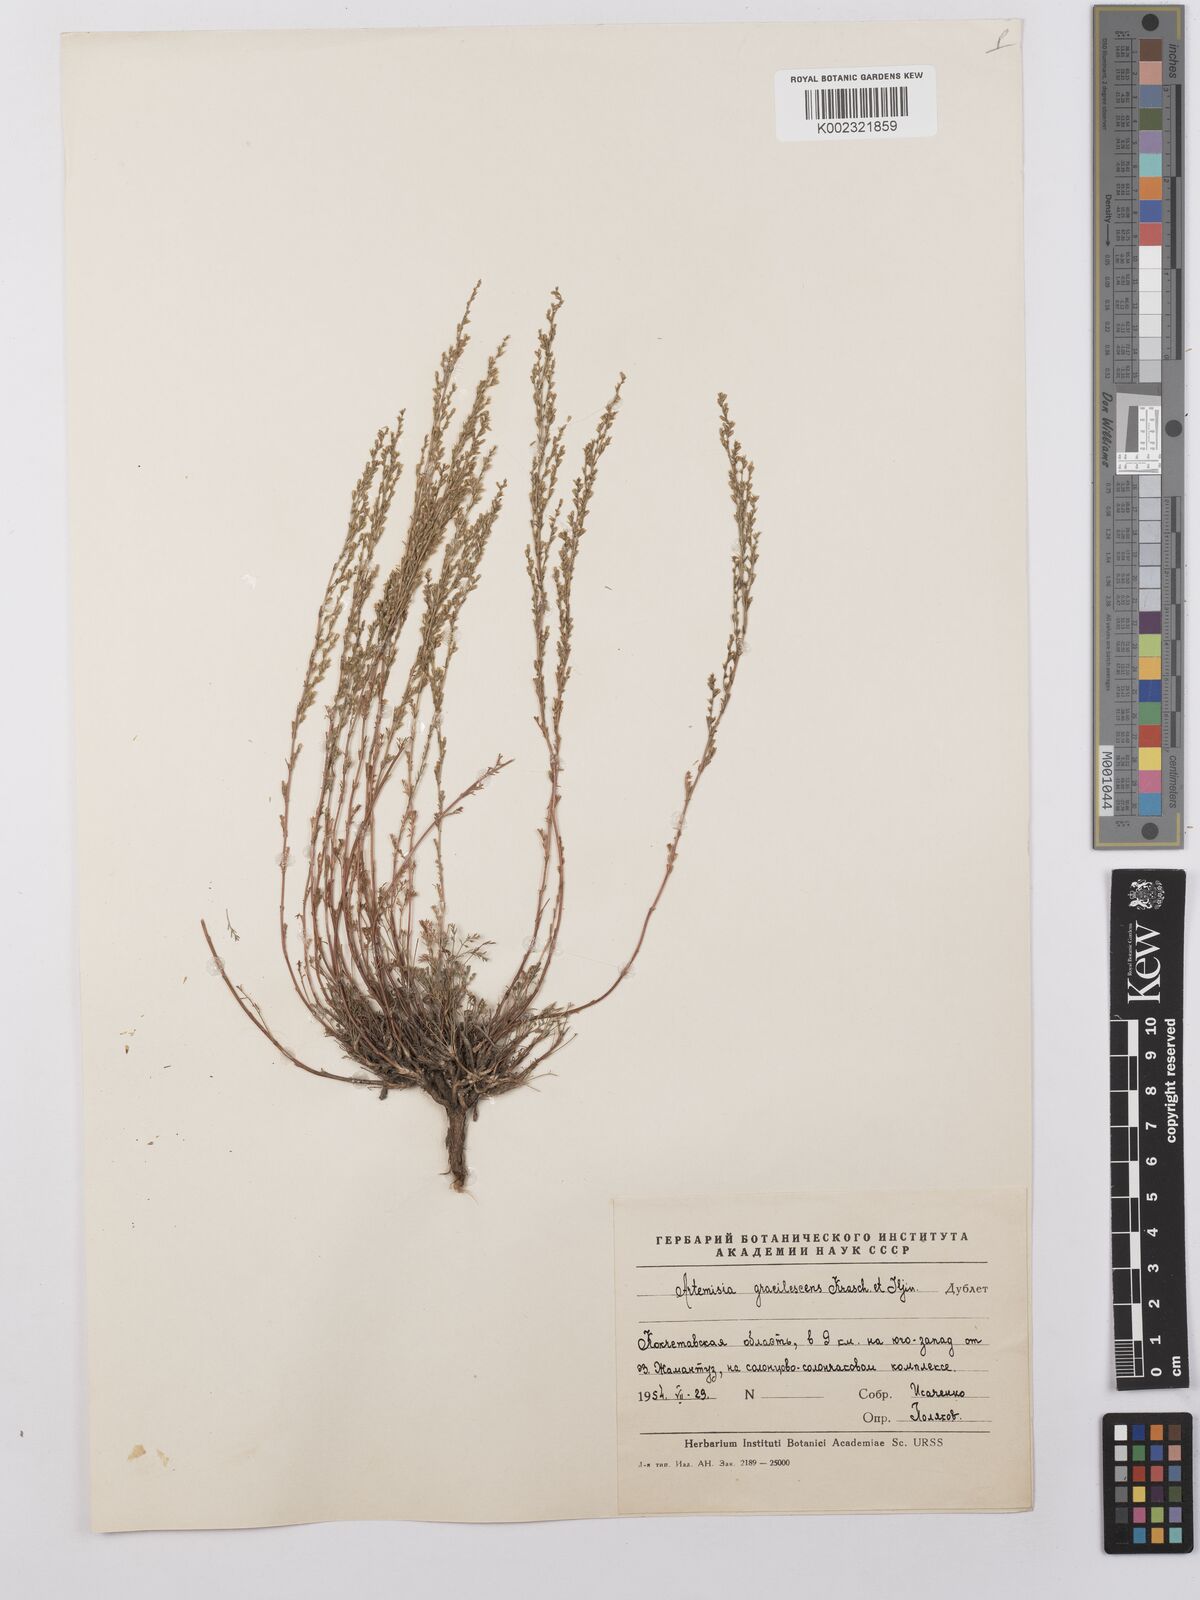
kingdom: Plantae
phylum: Tracheophyta
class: Magnoliopsida
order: Asterales
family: Asteraceae
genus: Artemisia
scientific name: Artemisia gracilescens
